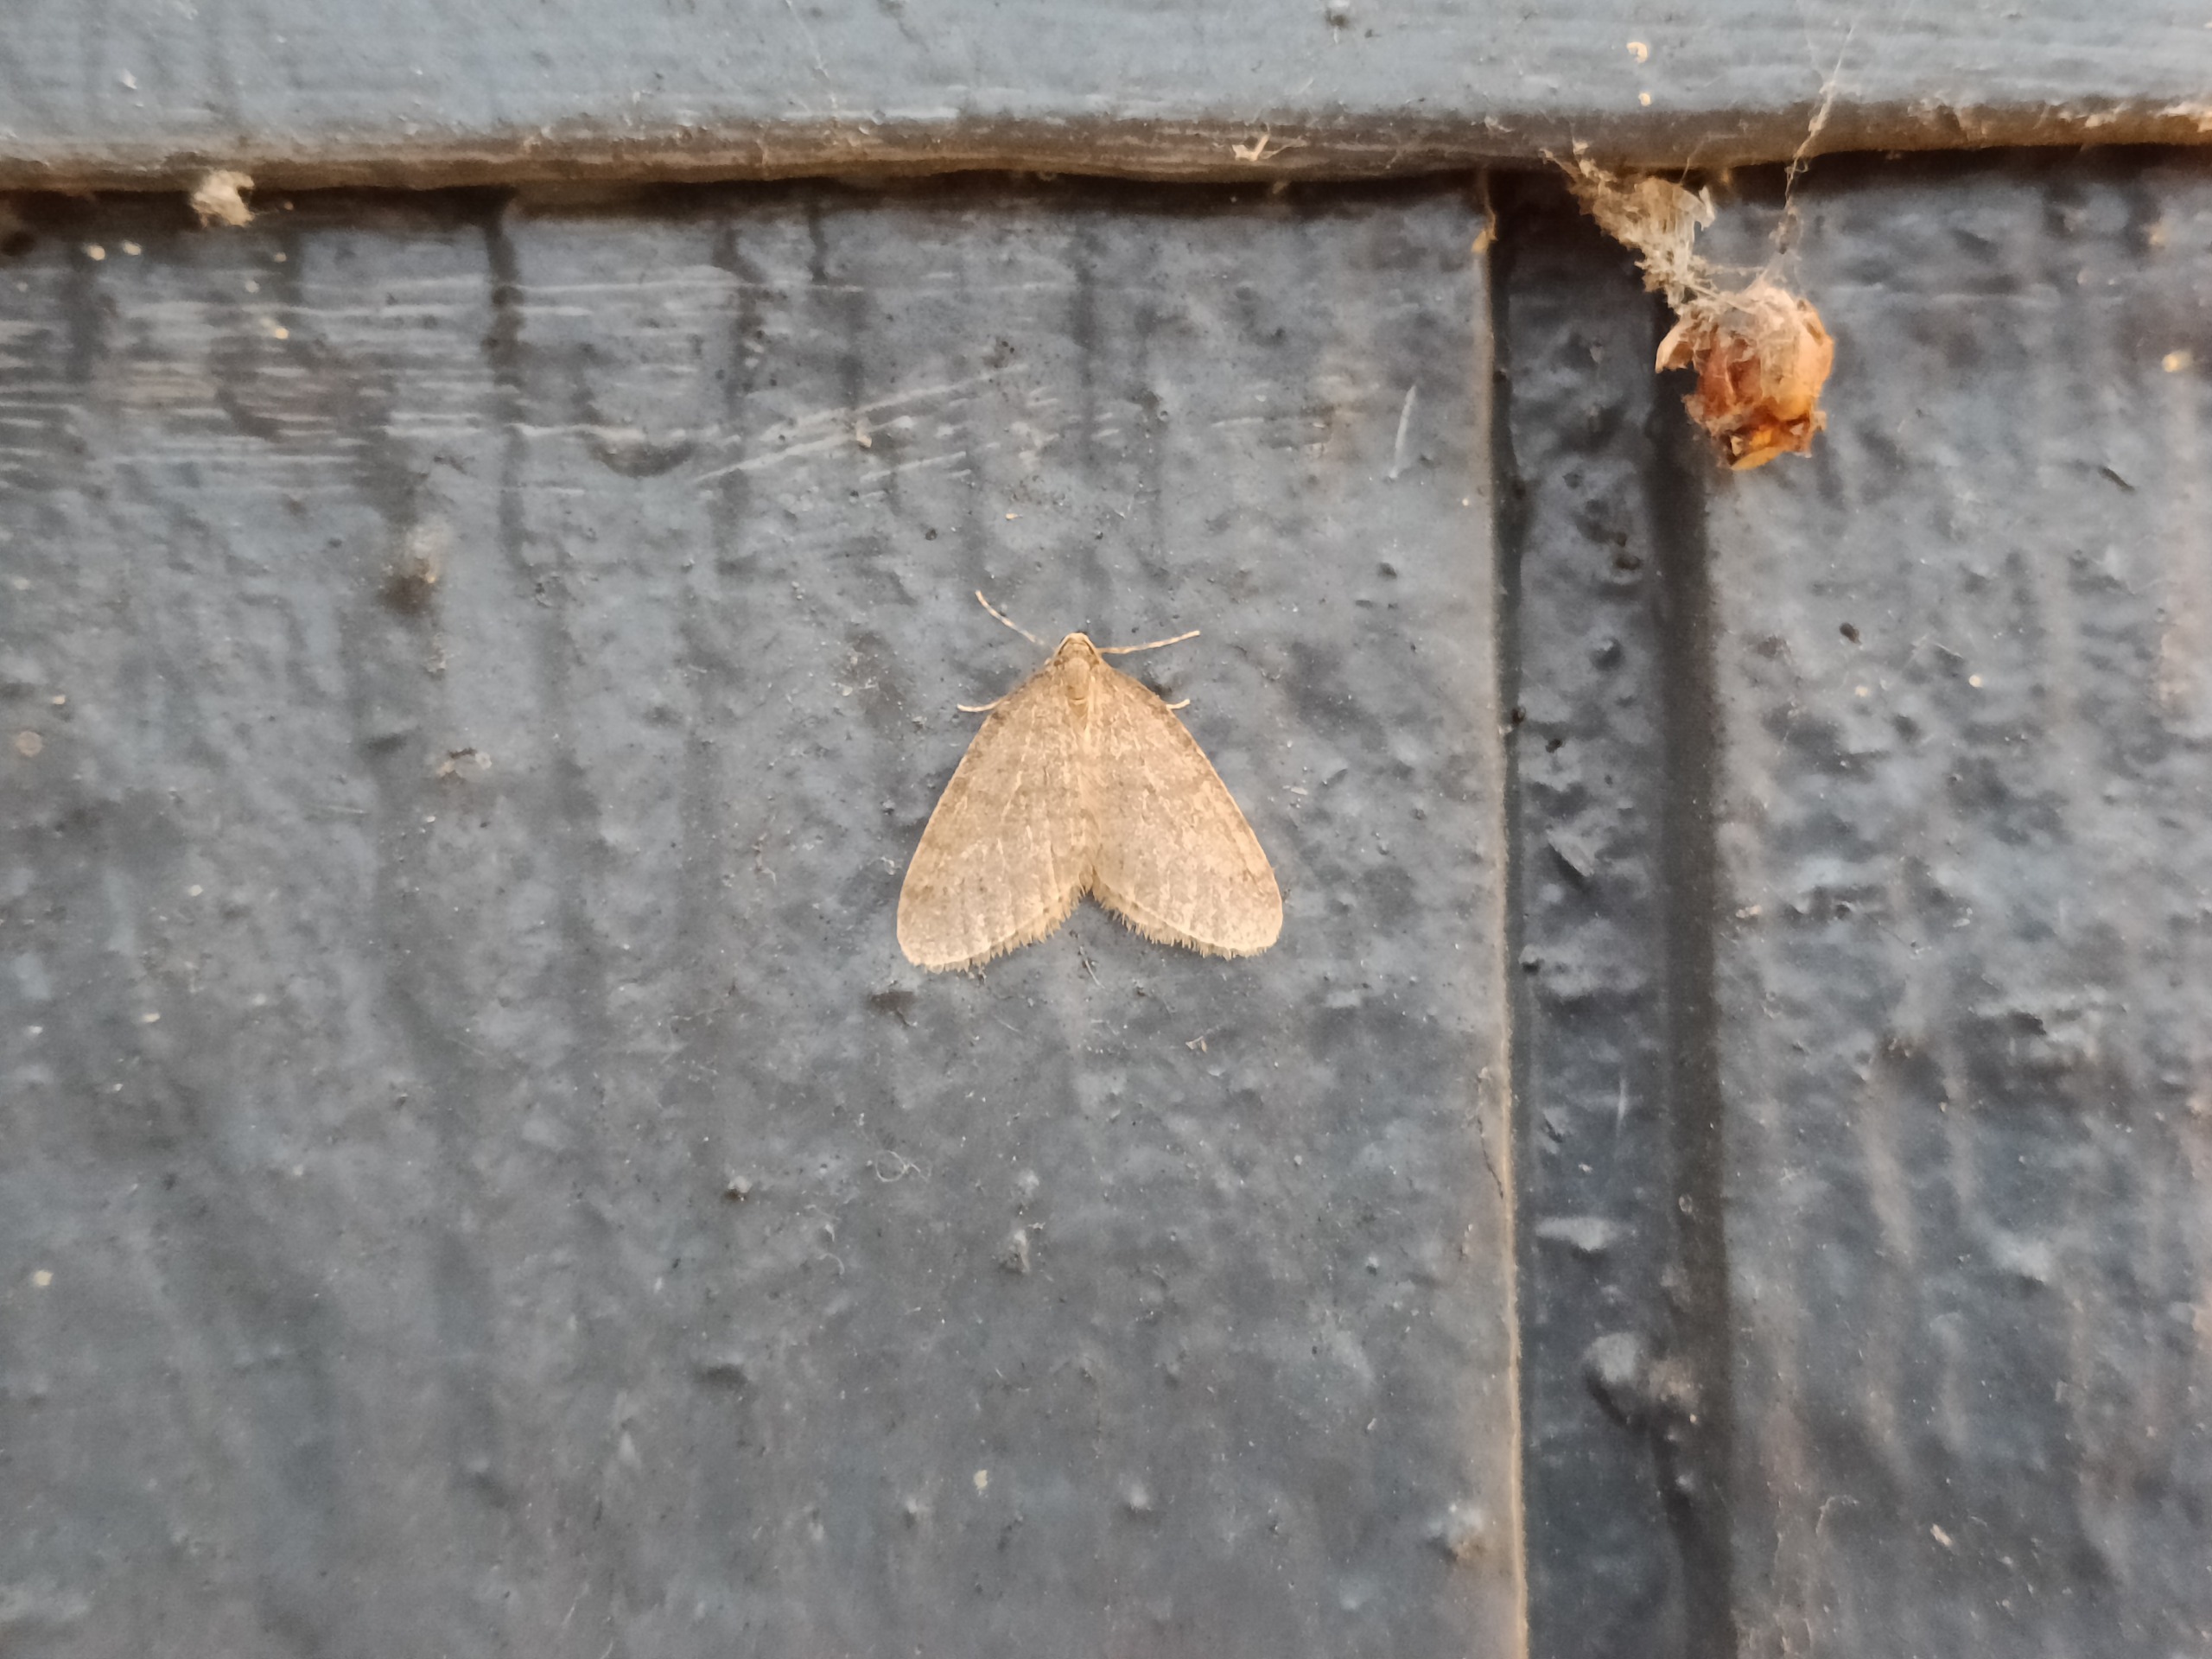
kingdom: Animalia
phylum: Arthropoda
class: Insecta
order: Lepidoptera
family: Geometridae
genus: Operophtera
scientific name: Operophtera brumata
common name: Lille frostmåler
